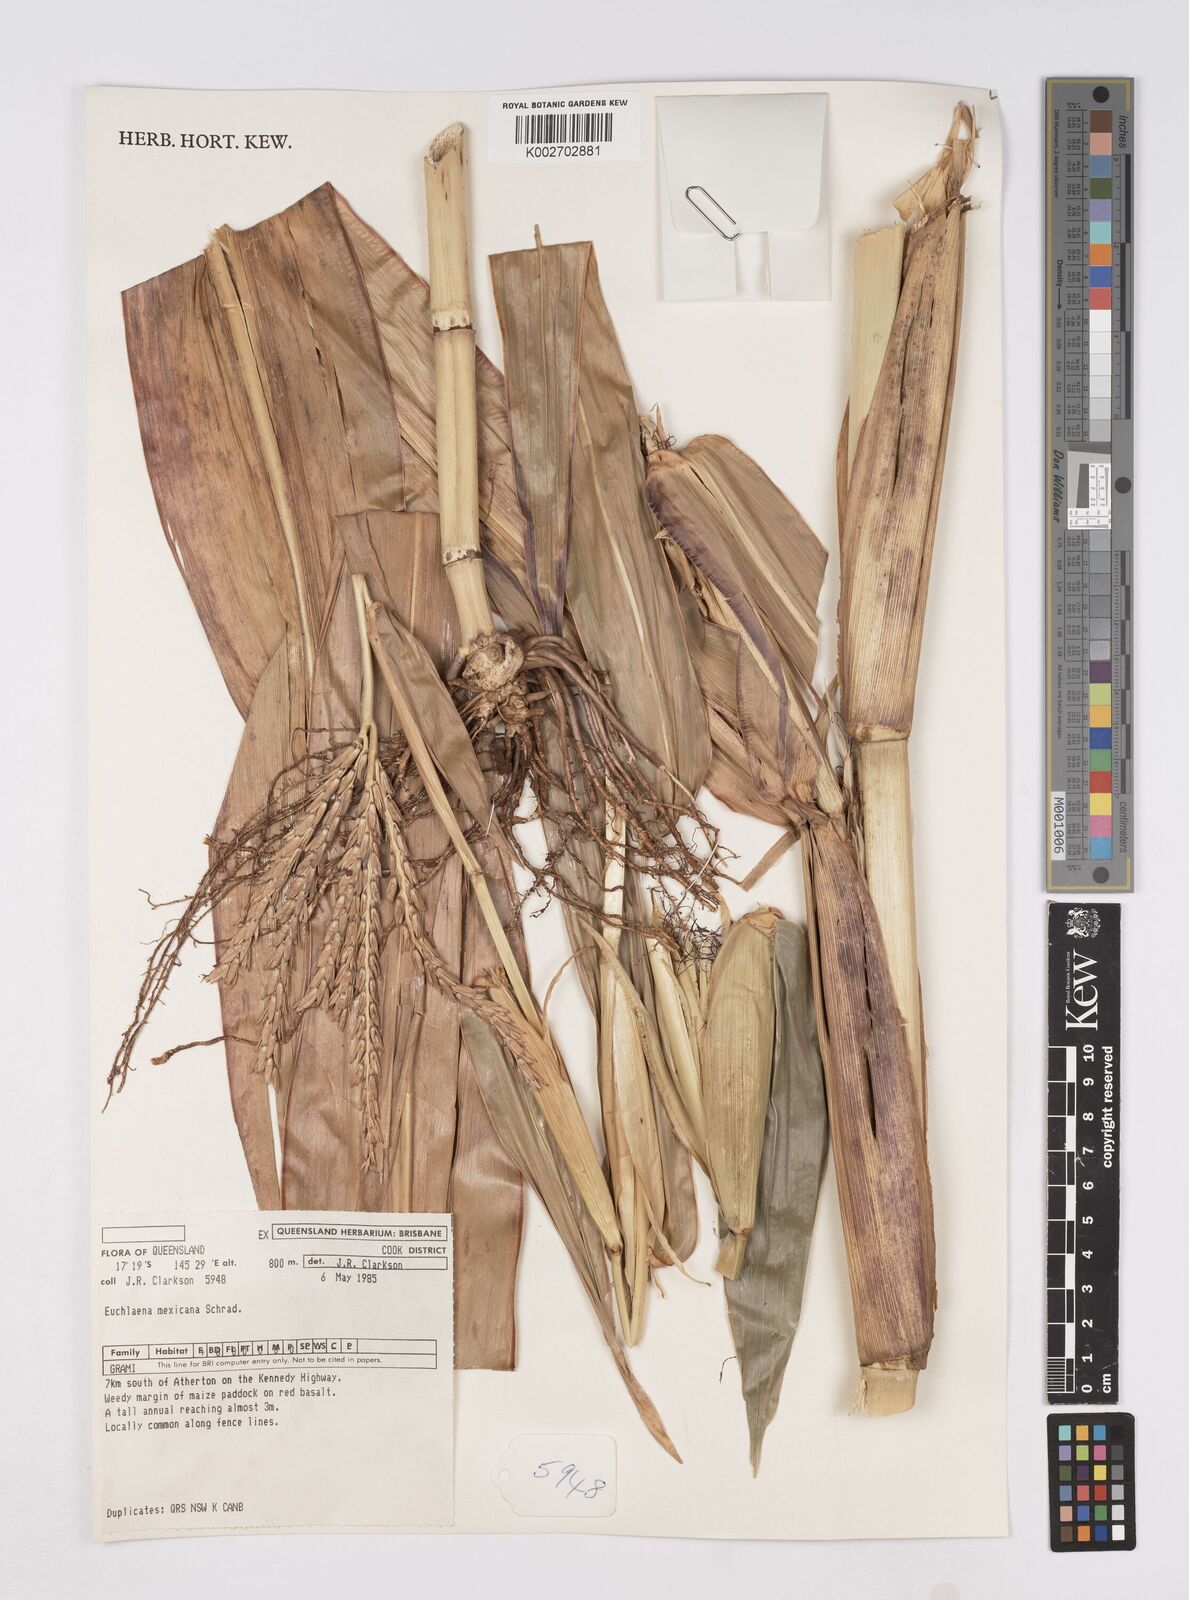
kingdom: Plantae
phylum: Tracheophyta
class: Liliopsida
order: Poales
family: Poaceae
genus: Zea
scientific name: Zea mexicana
